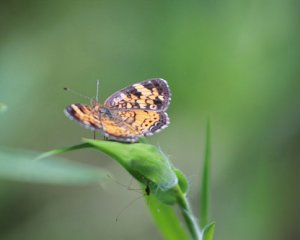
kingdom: Animalia
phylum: Arthropoda
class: Insecta
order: Lepidoptera
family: Nymphalidae
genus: Phyciodes
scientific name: Phyciodes tharos
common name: Pearl Crescent
